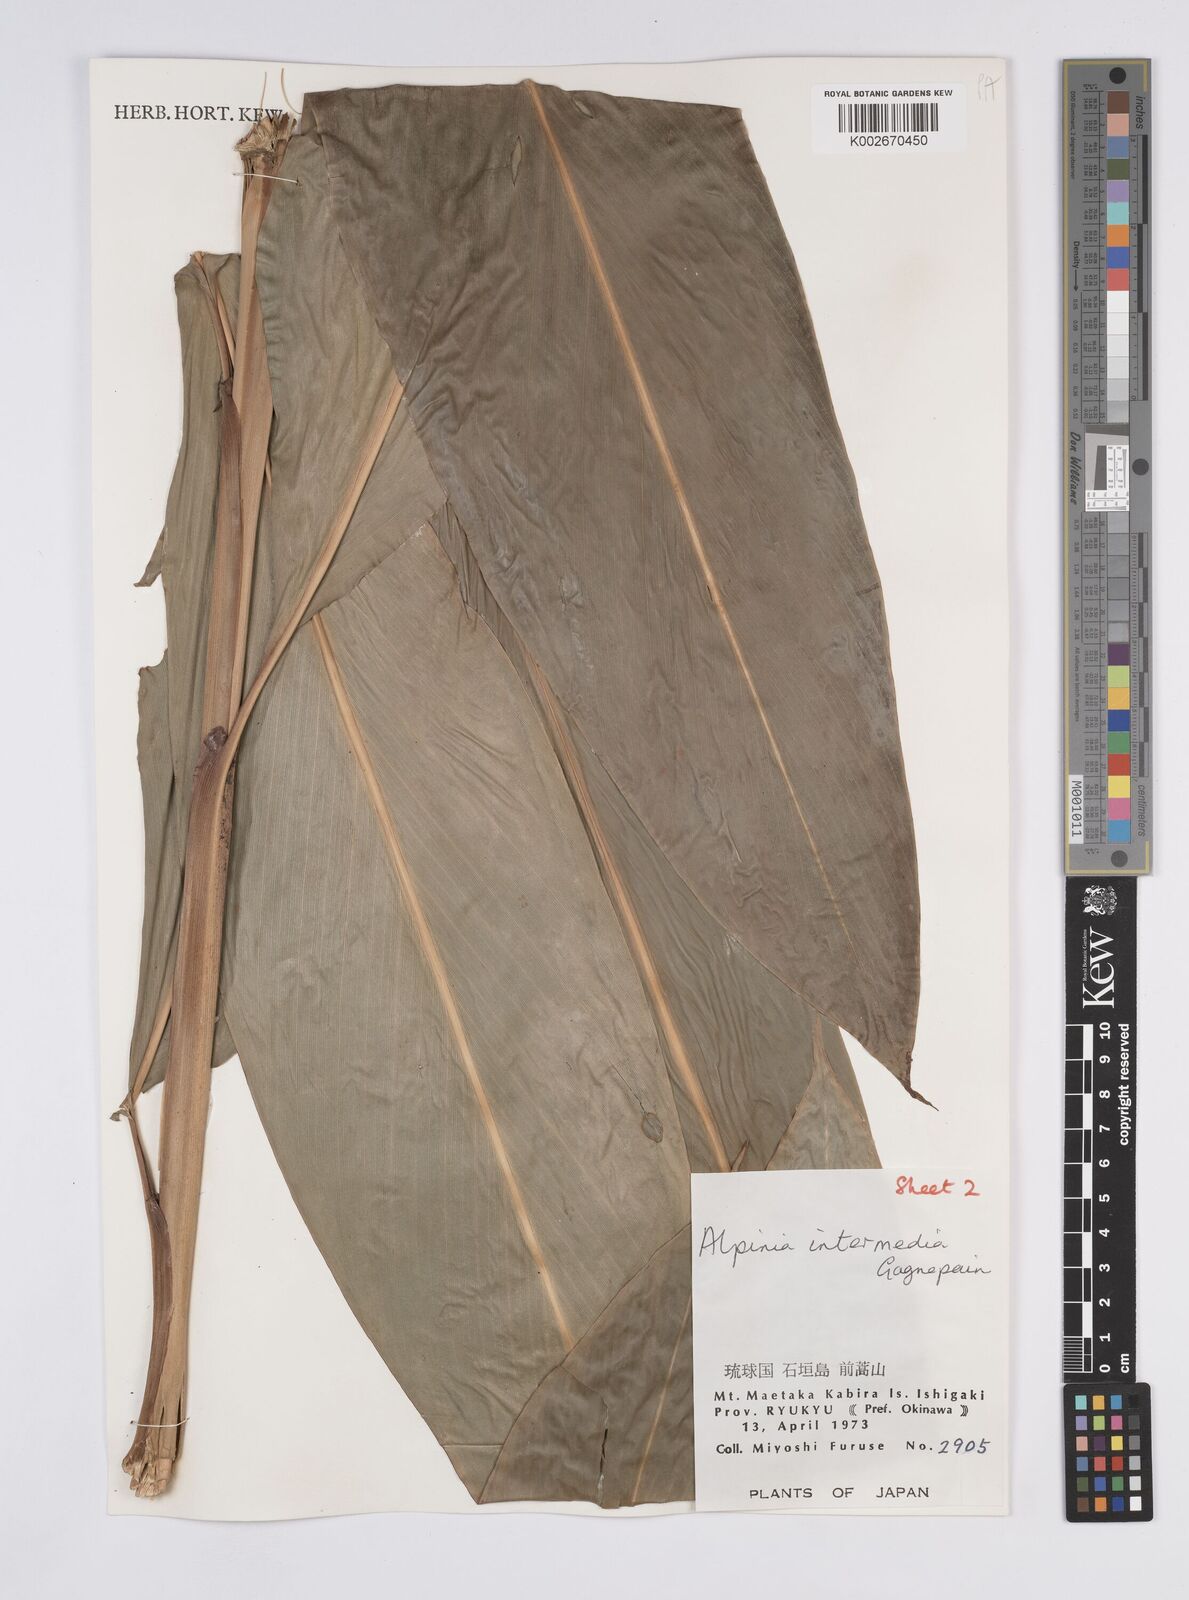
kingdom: Plantae
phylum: Tracheophyta
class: Liliopsida
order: Zingiberales
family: Zingiberaceae
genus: Alpinia
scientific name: Alpinia intermedia
